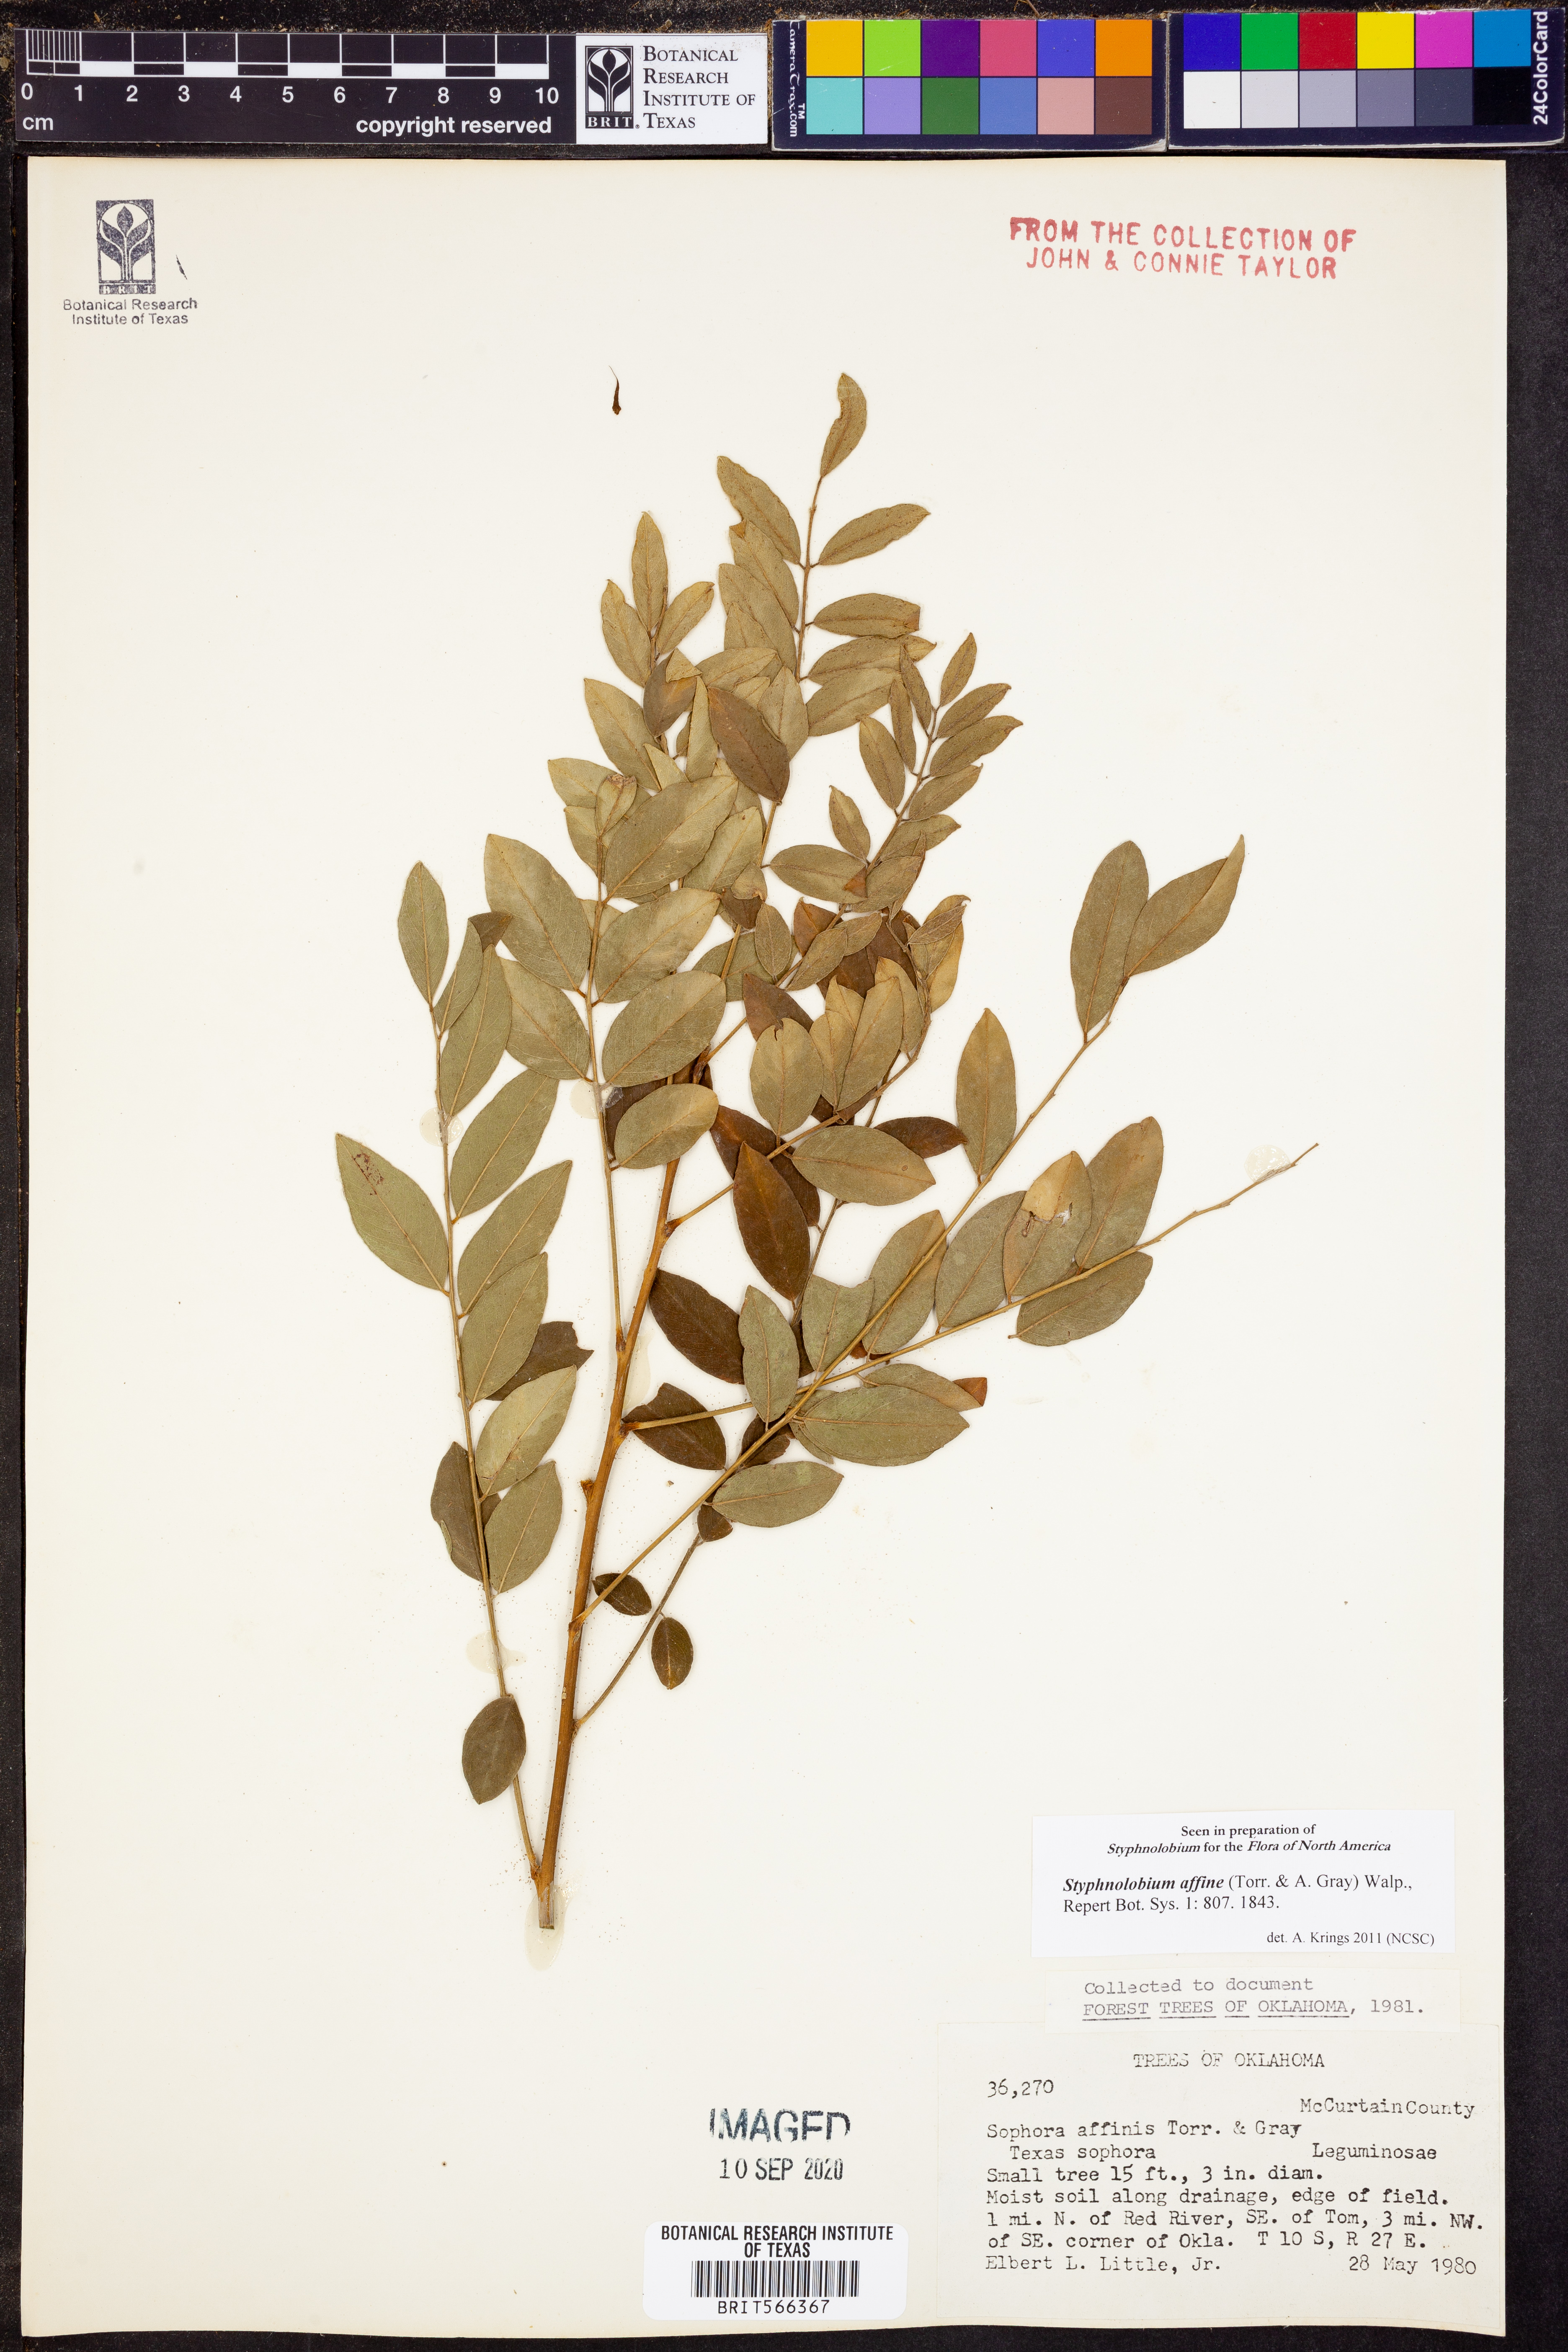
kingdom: Plantae
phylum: Tracheophyta
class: Magnoliopsida
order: Fabales
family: Fabaceae
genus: Styphnolobium
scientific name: Styphnolobium affine
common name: Texas sophora
